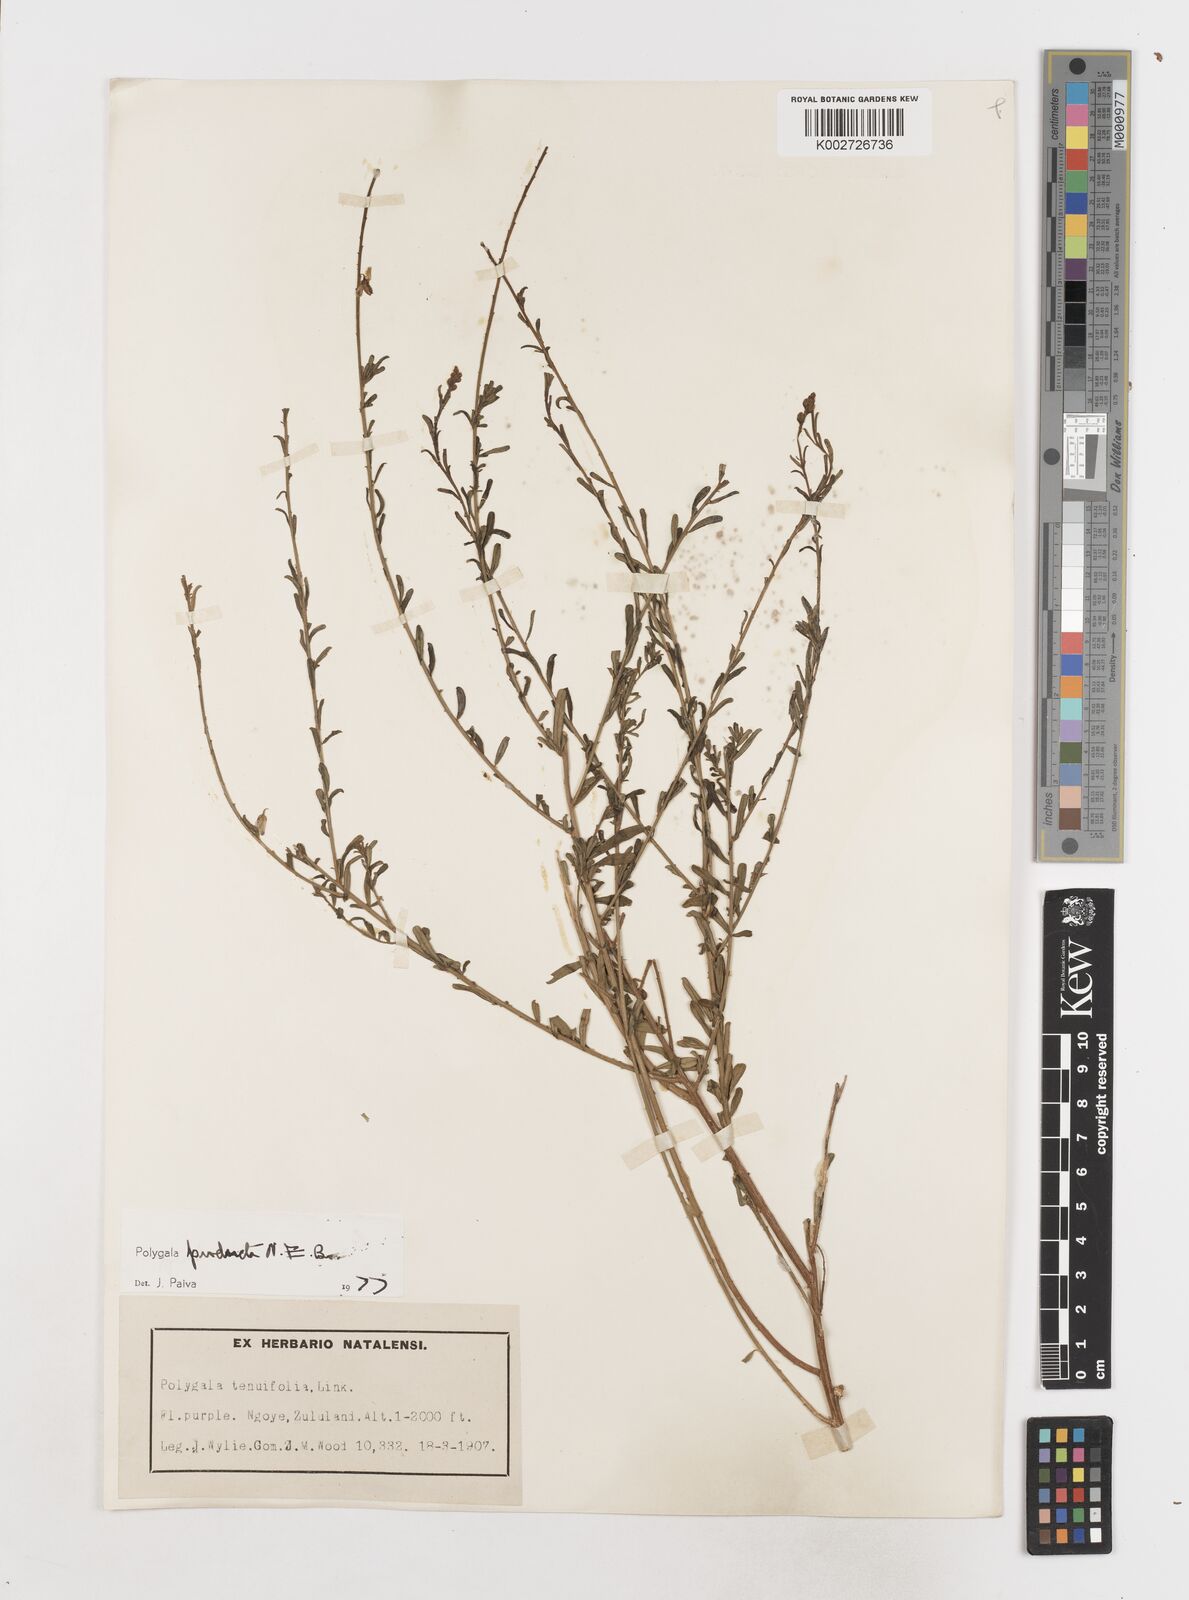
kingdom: Plantae
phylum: Tracheophyta
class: Magnoliopsida
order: Fabales
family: Polygalaceae
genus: Polygala
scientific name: Polygala producta
